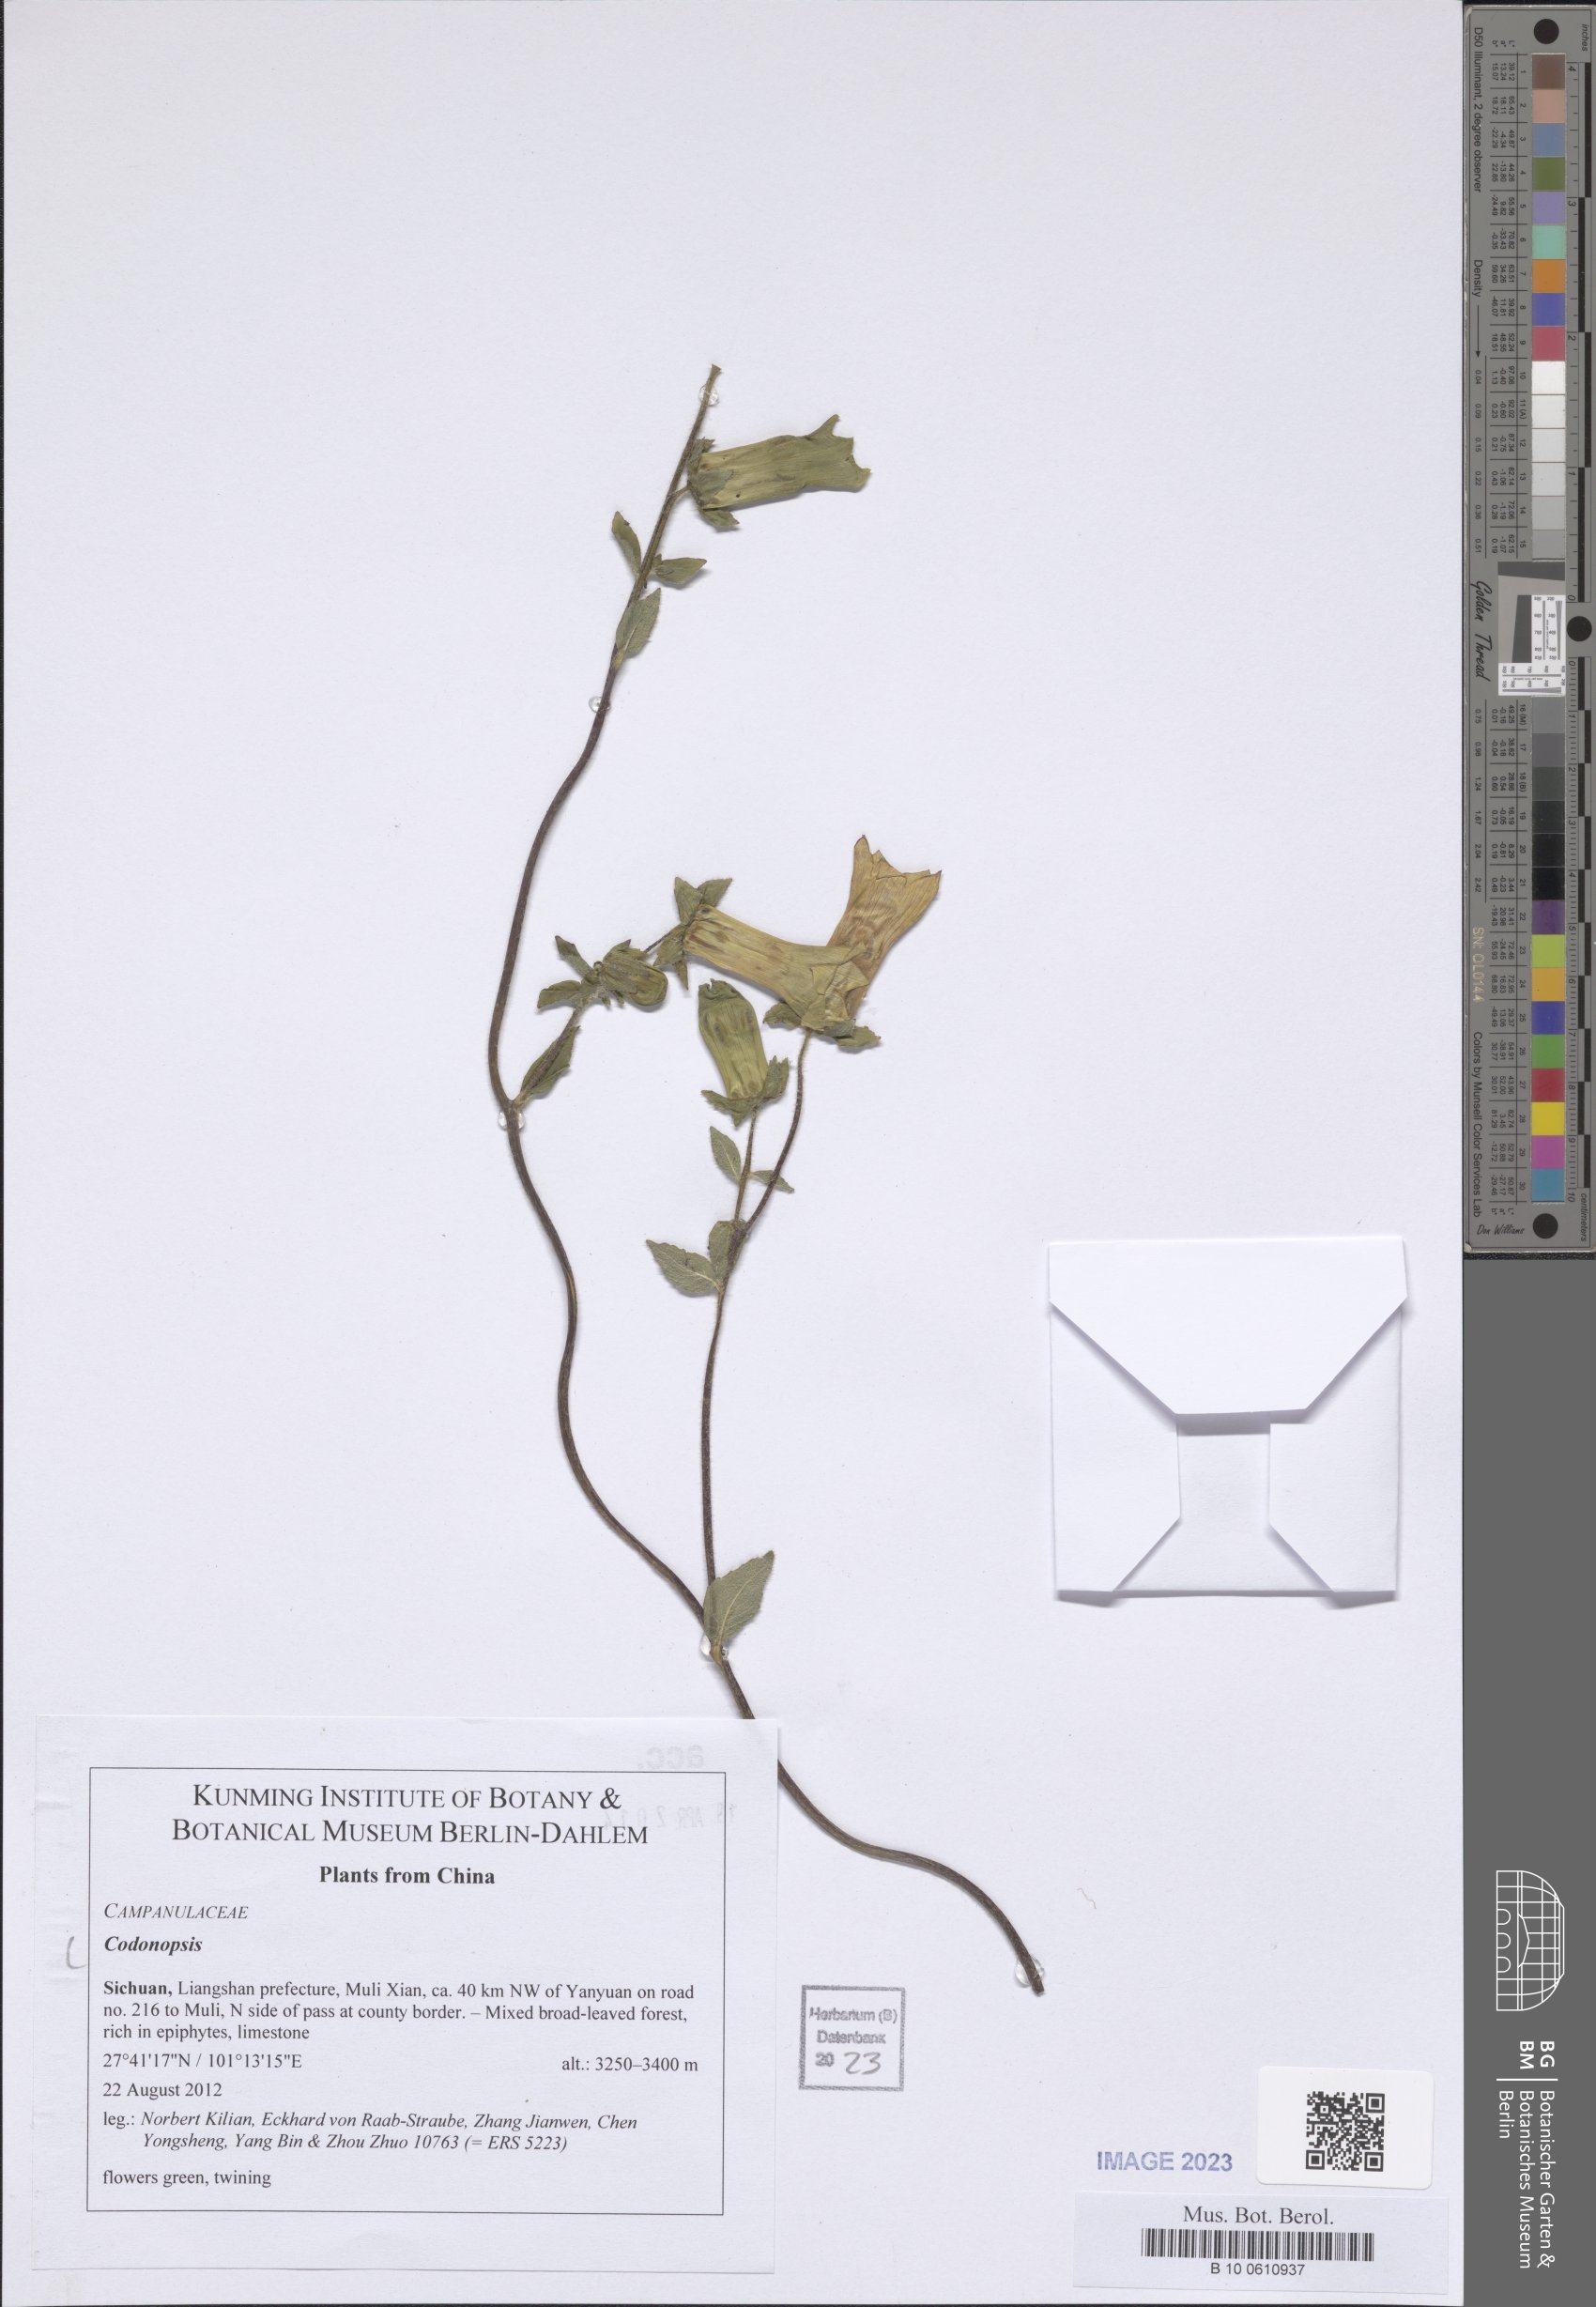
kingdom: Plantae
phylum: Tracheophyta
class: Magnoliopsida
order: Asterales
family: Campanulaceae
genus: Codonopsis
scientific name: Codonopsis
